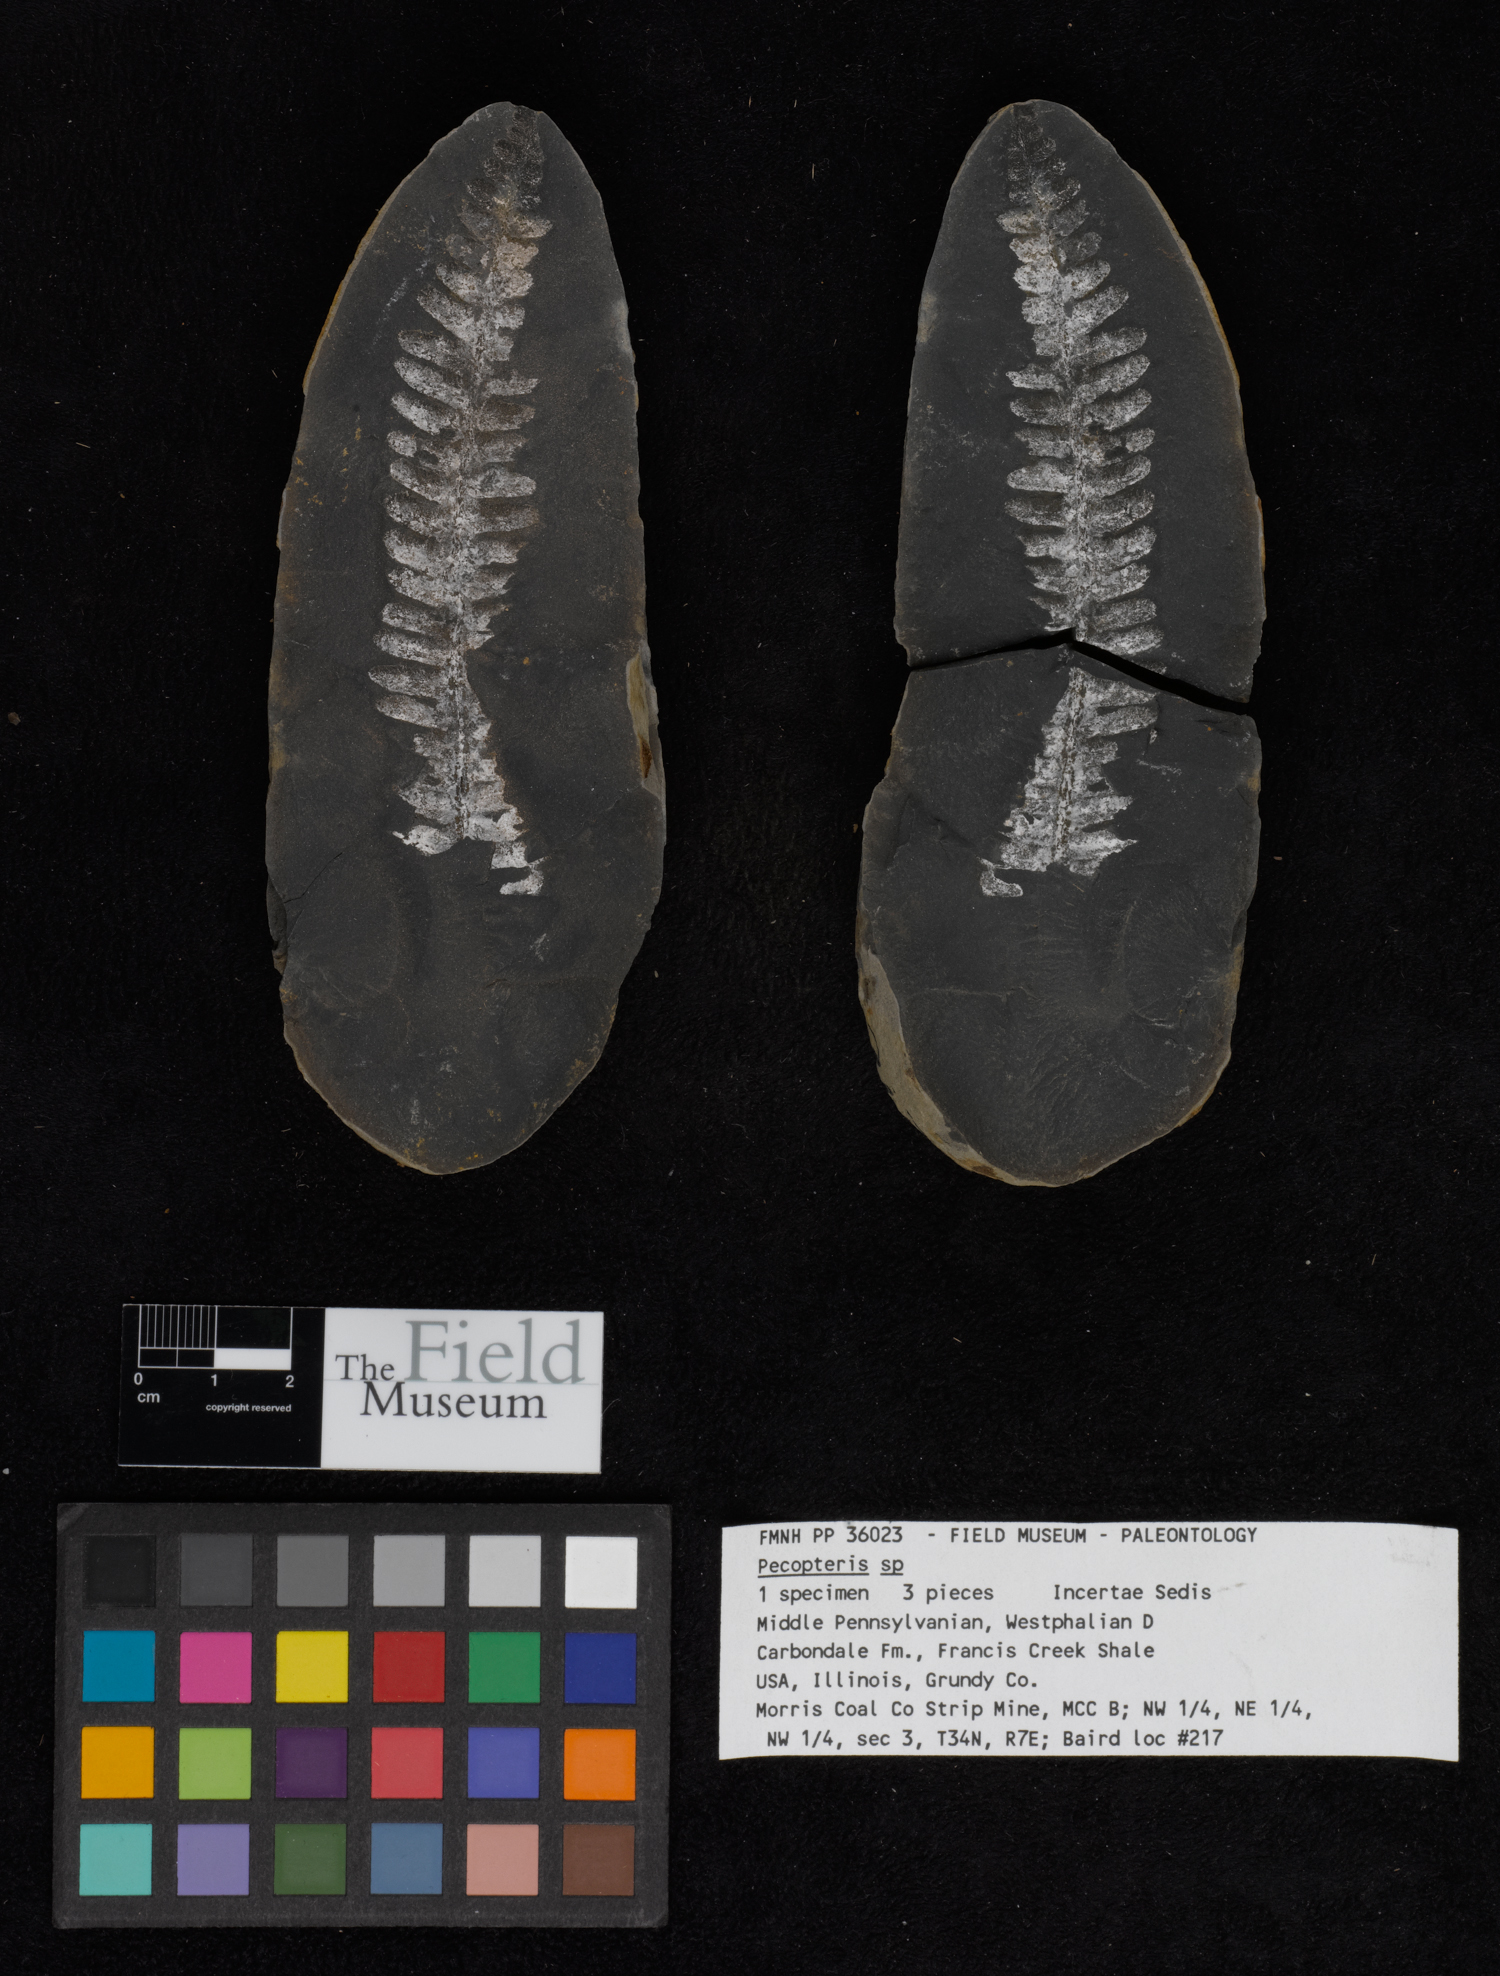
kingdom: Plantae
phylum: Tracheophyta
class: Polypodiopsida
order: Marattiales
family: Asterothecaceae
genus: Pecopteris
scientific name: Pecopteris
